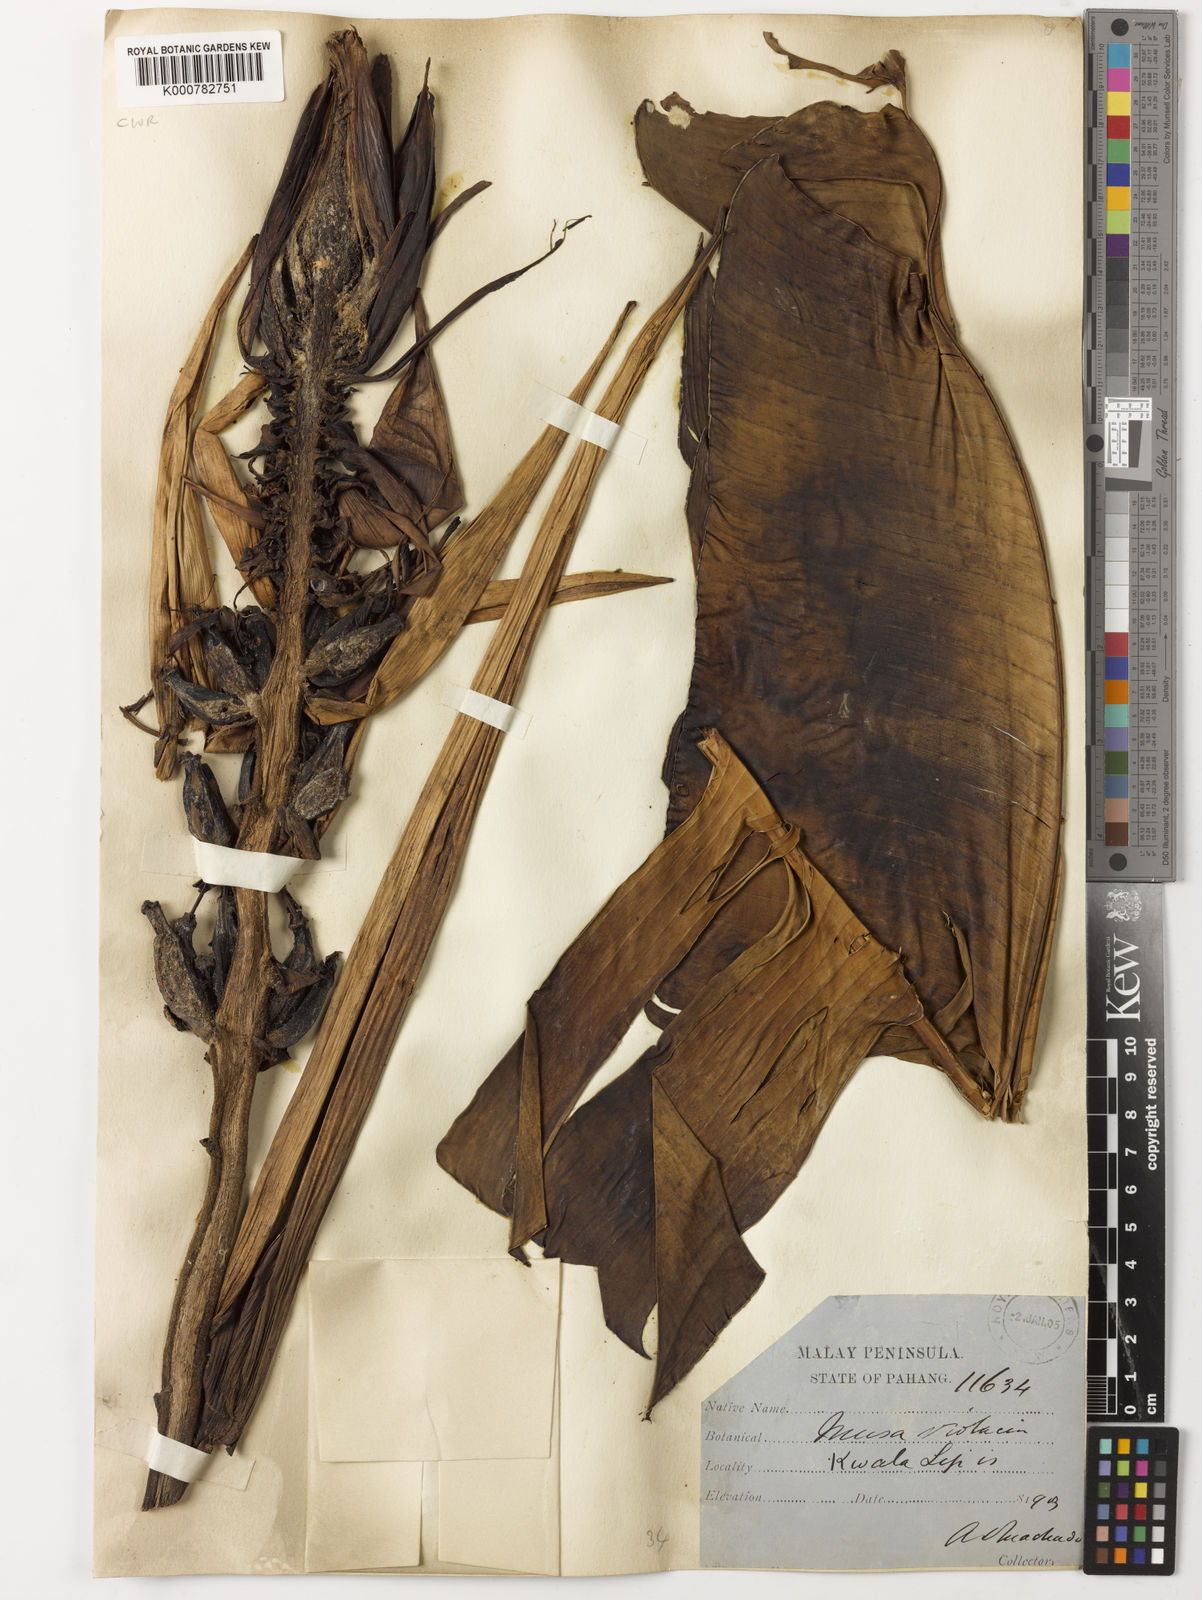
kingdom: Plantae
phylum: Tracheophyta
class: Liliopsida
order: Zingiberales
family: Musaceae
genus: Musa
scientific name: Musa violascens
